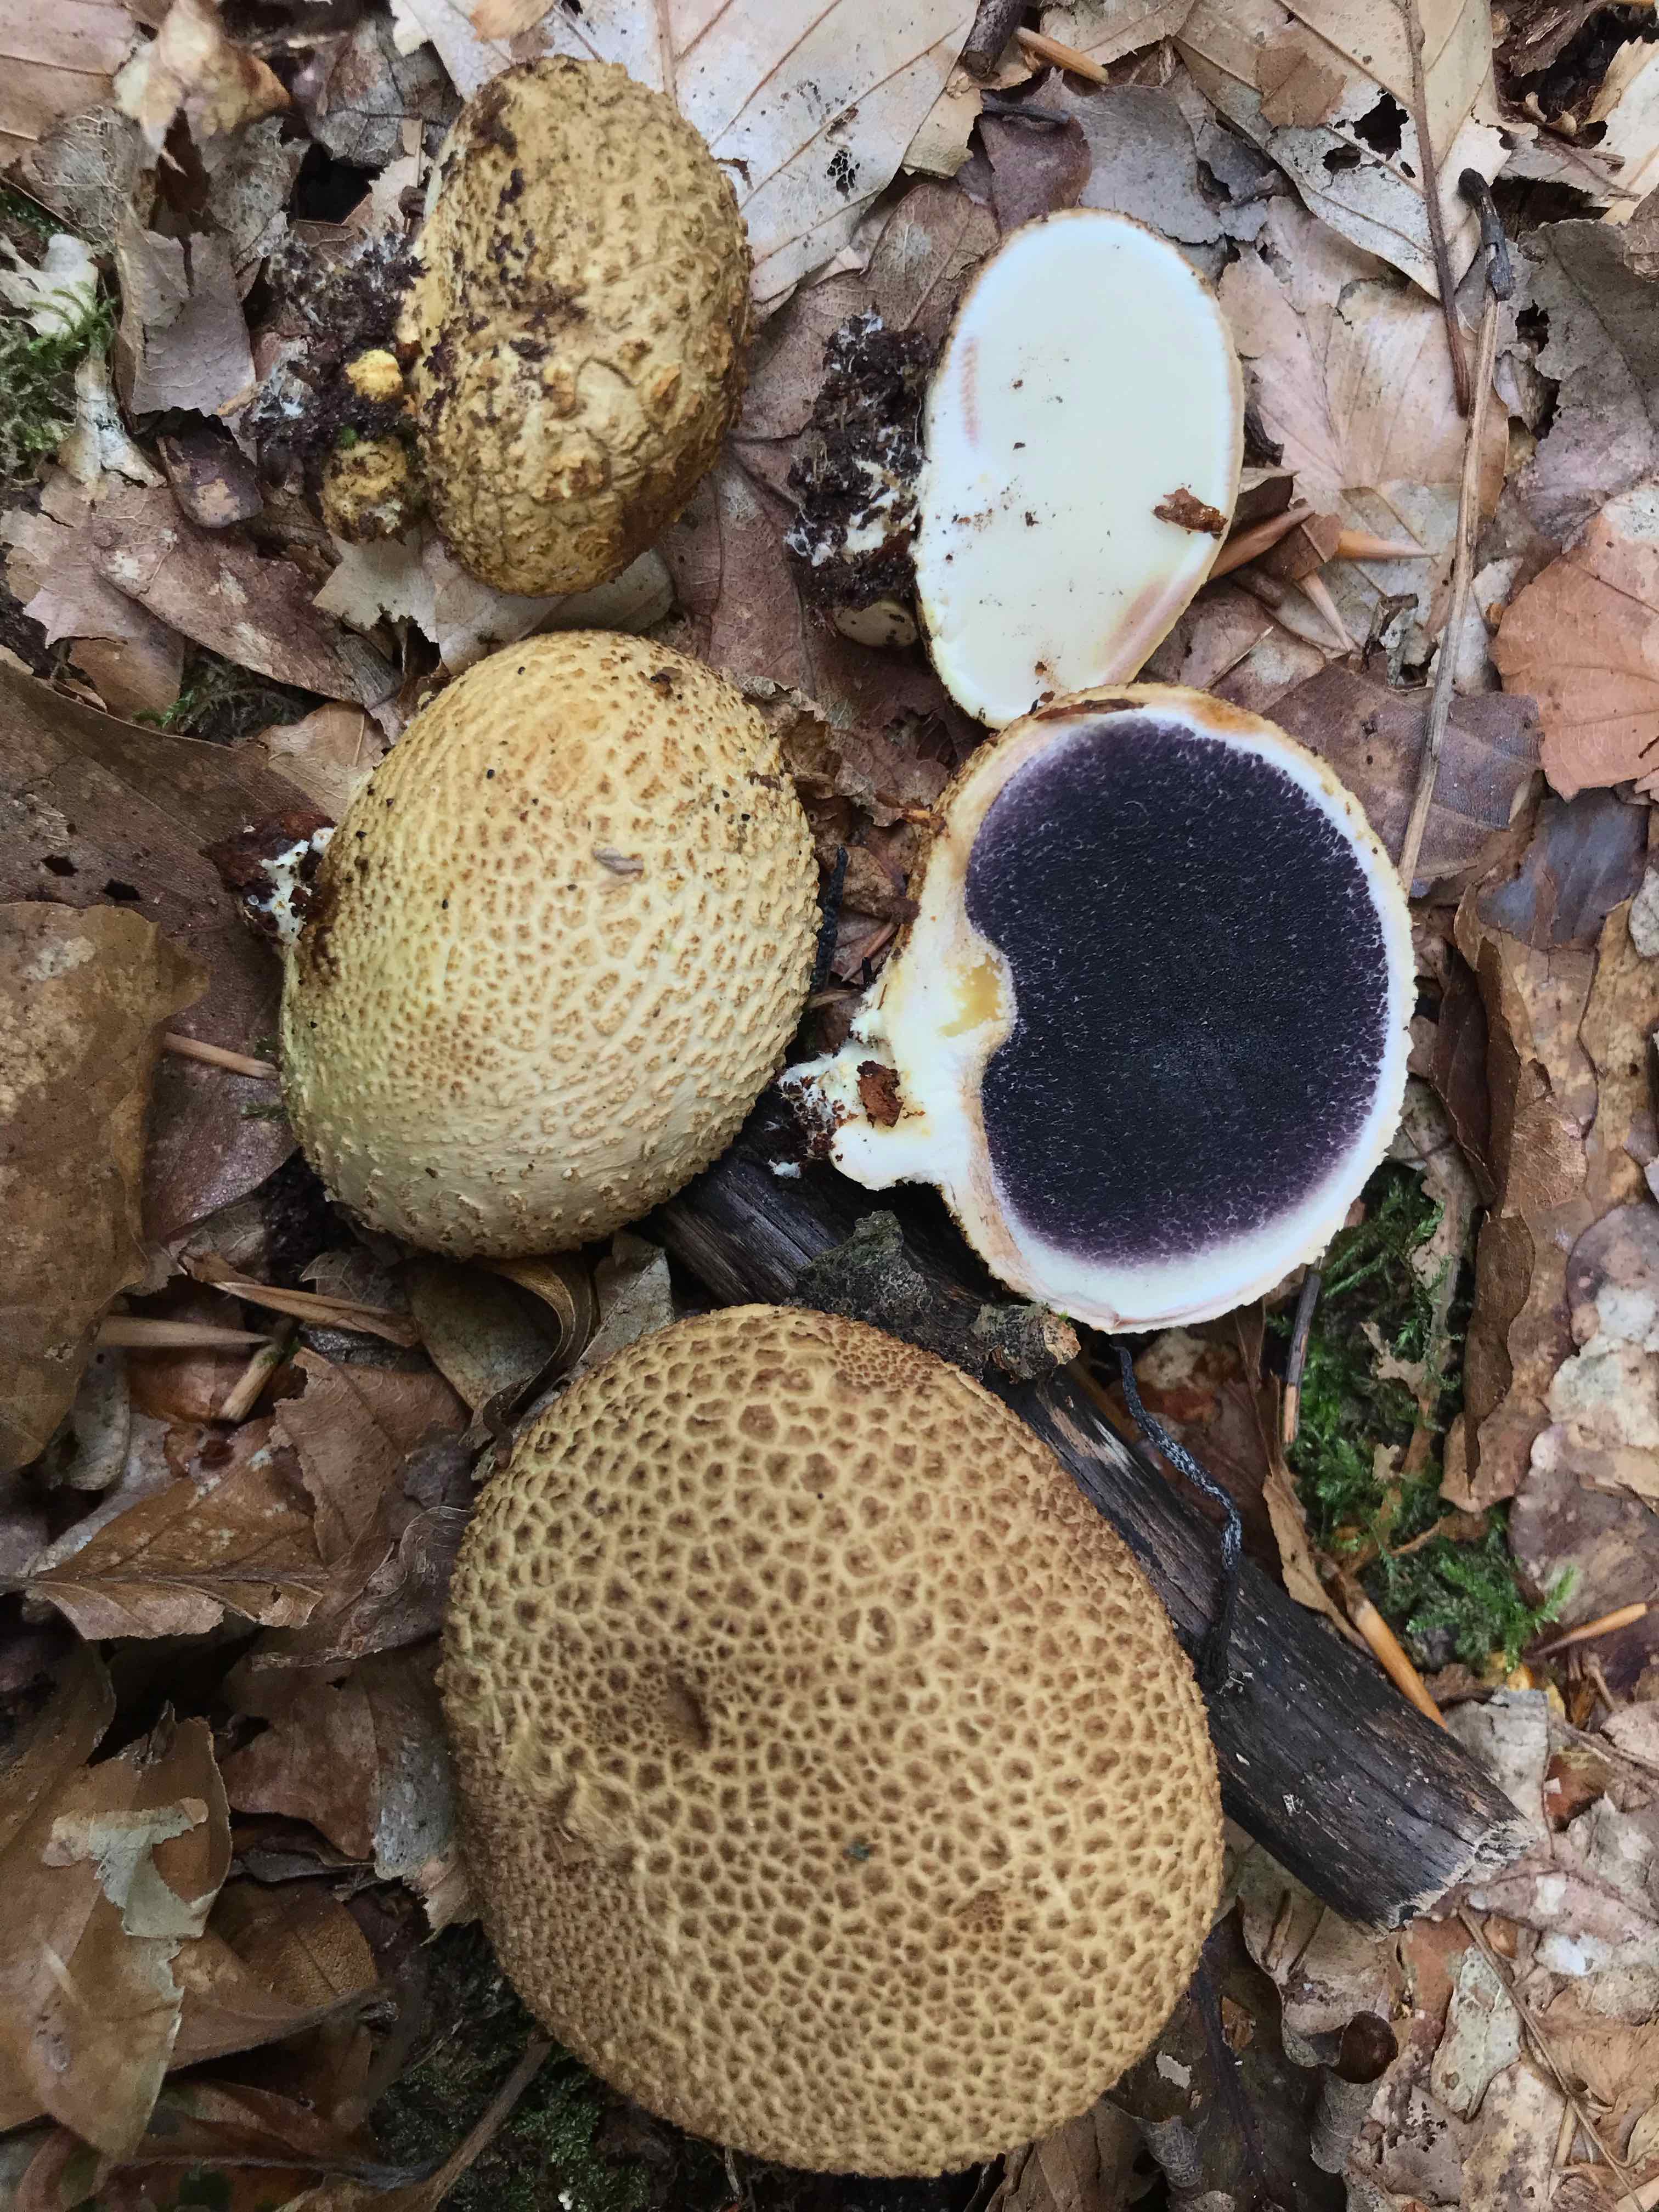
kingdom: Fungi
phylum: Basidiomycota
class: Agaricomycetes
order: Boletales
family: Sclerodermataceae
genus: Scleroderma
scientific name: Scleroderma citrinum
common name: almindelig bruskbold
